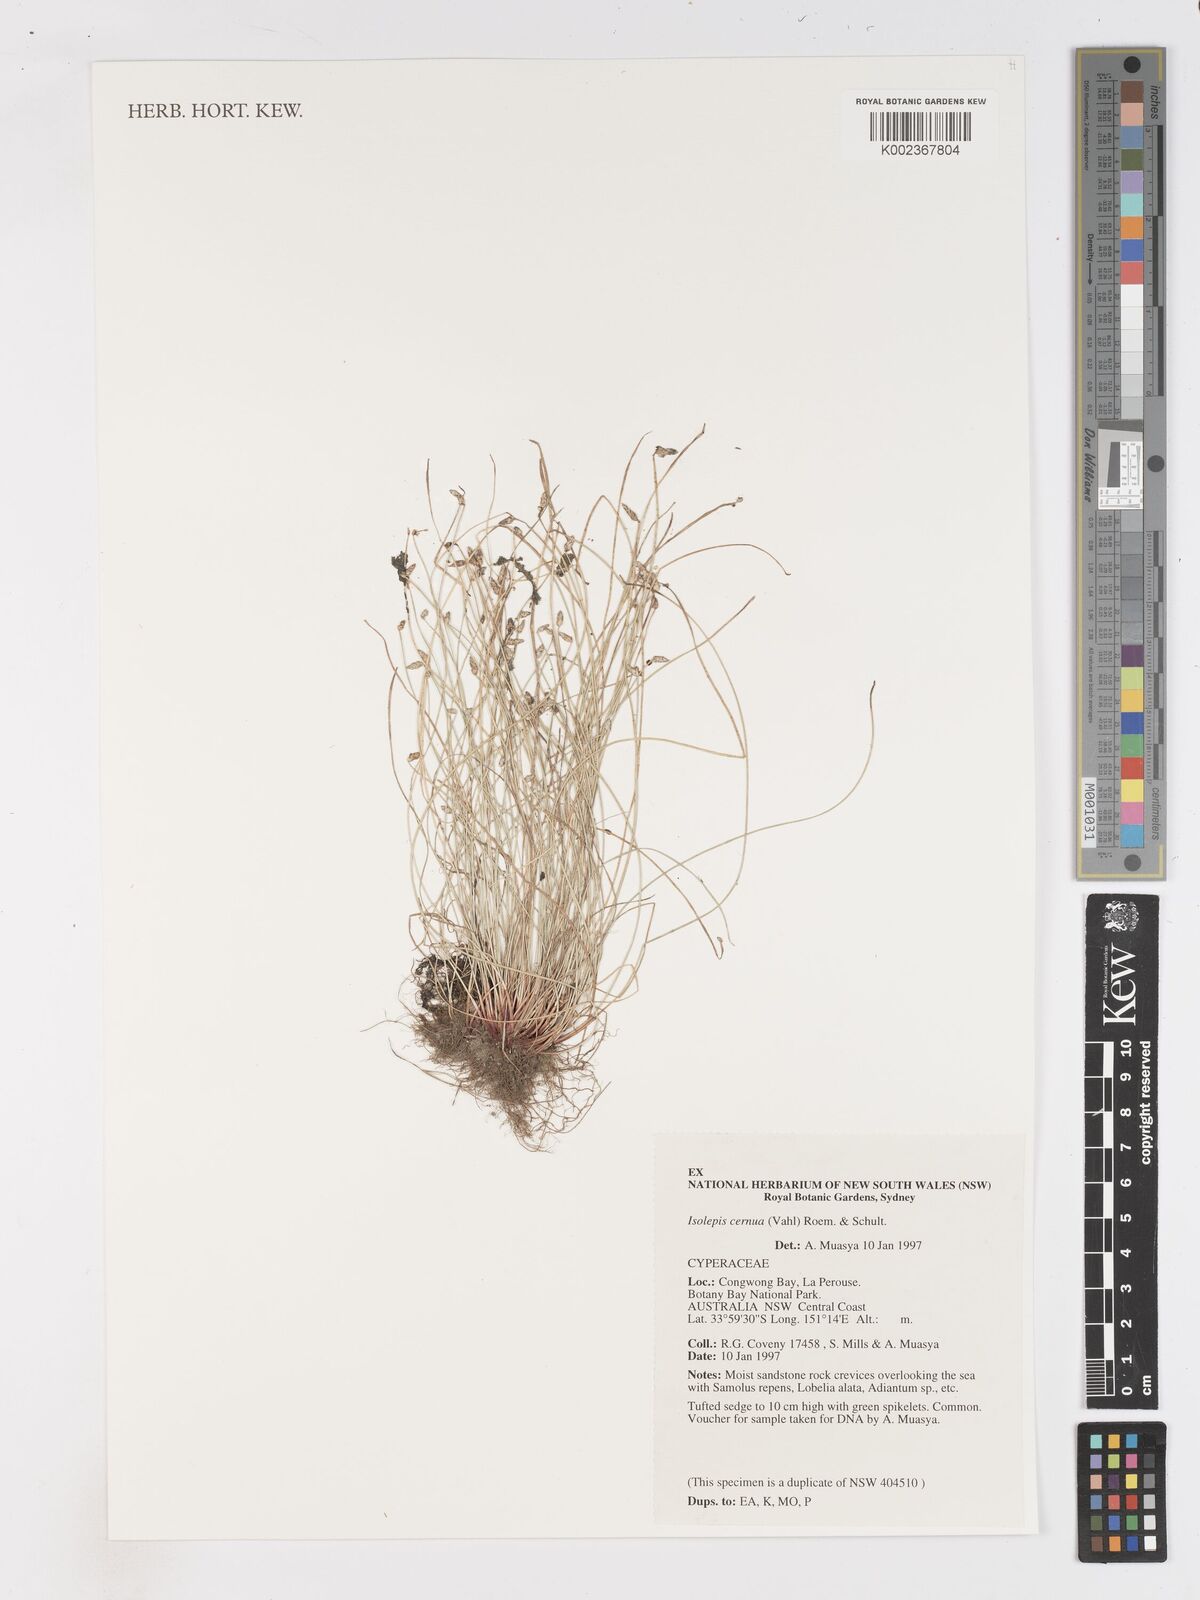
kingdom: Plantae
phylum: Tracheophyta
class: Liliopsida
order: Poales
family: Cyperaceae
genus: Isolepis
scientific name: Isolepis cernua
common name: Slender club-rush
